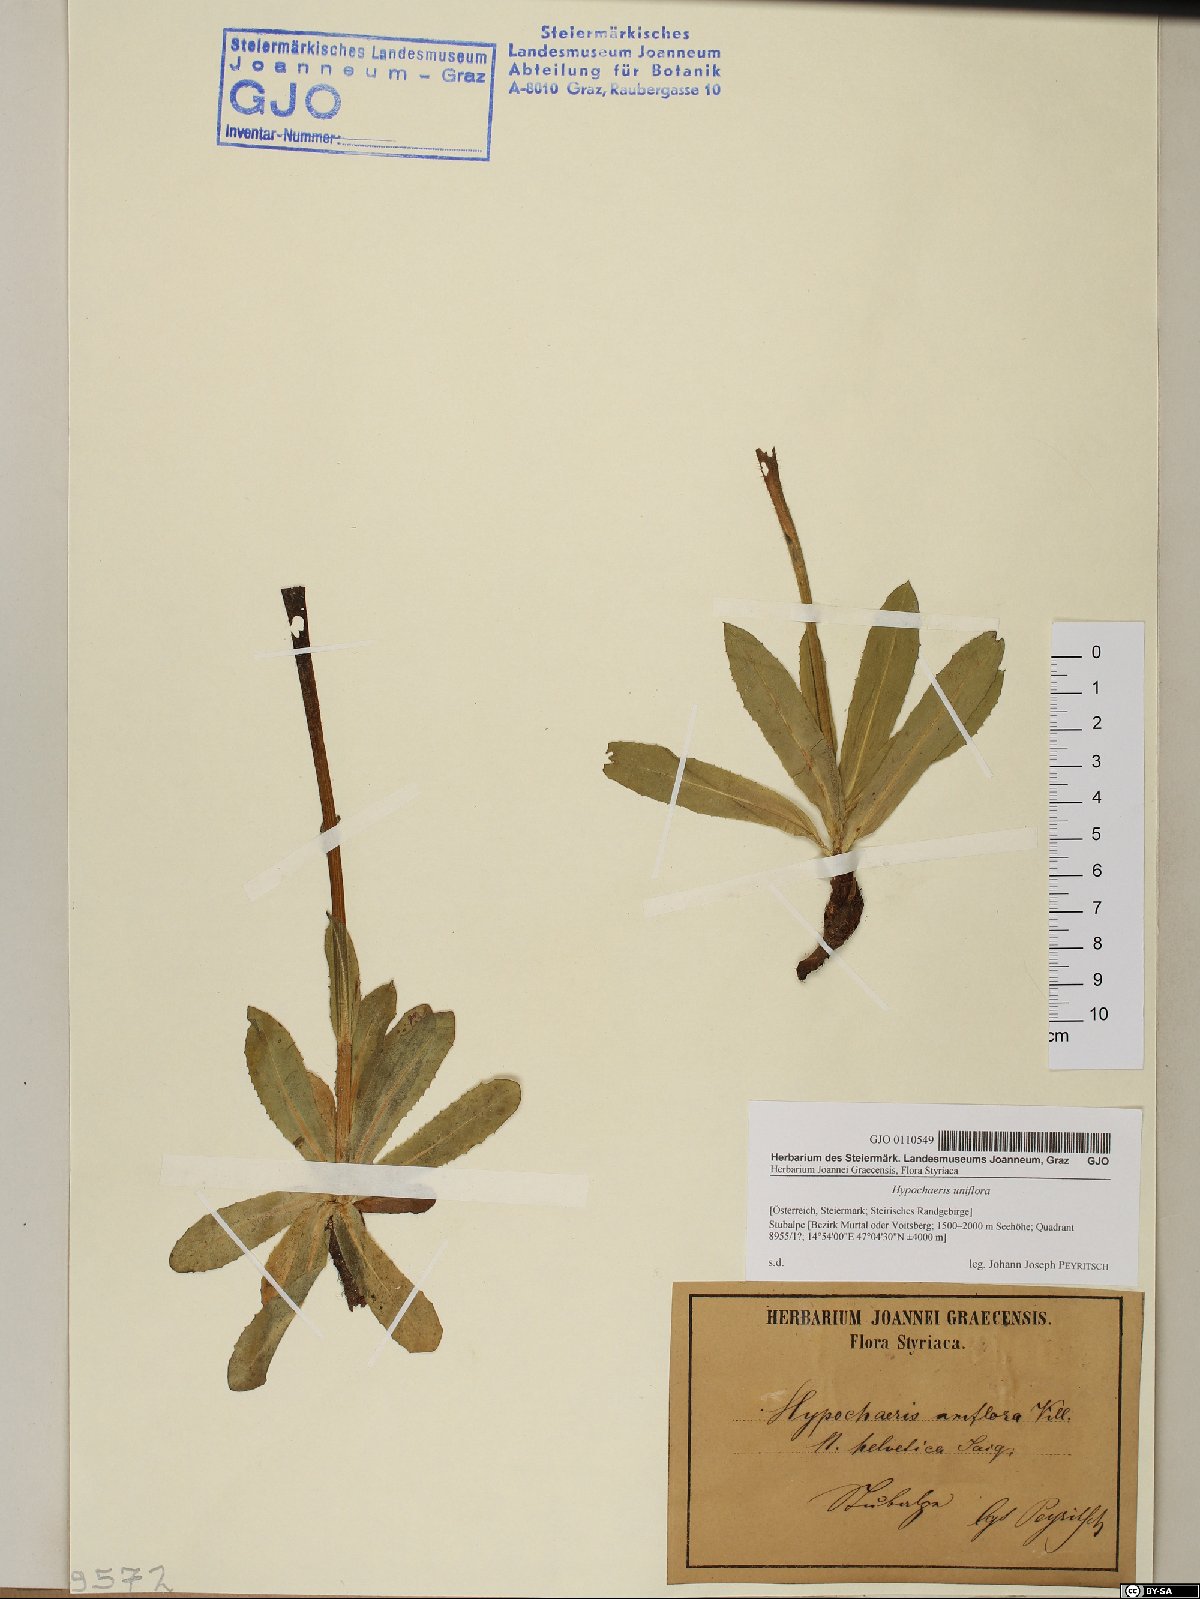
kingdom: Plantae
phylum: Tracheophyta
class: Magnoliopsida
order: Asterales
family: Asteraceae
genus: Trommsdorffia
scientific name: Trommsdorffia uniflora
